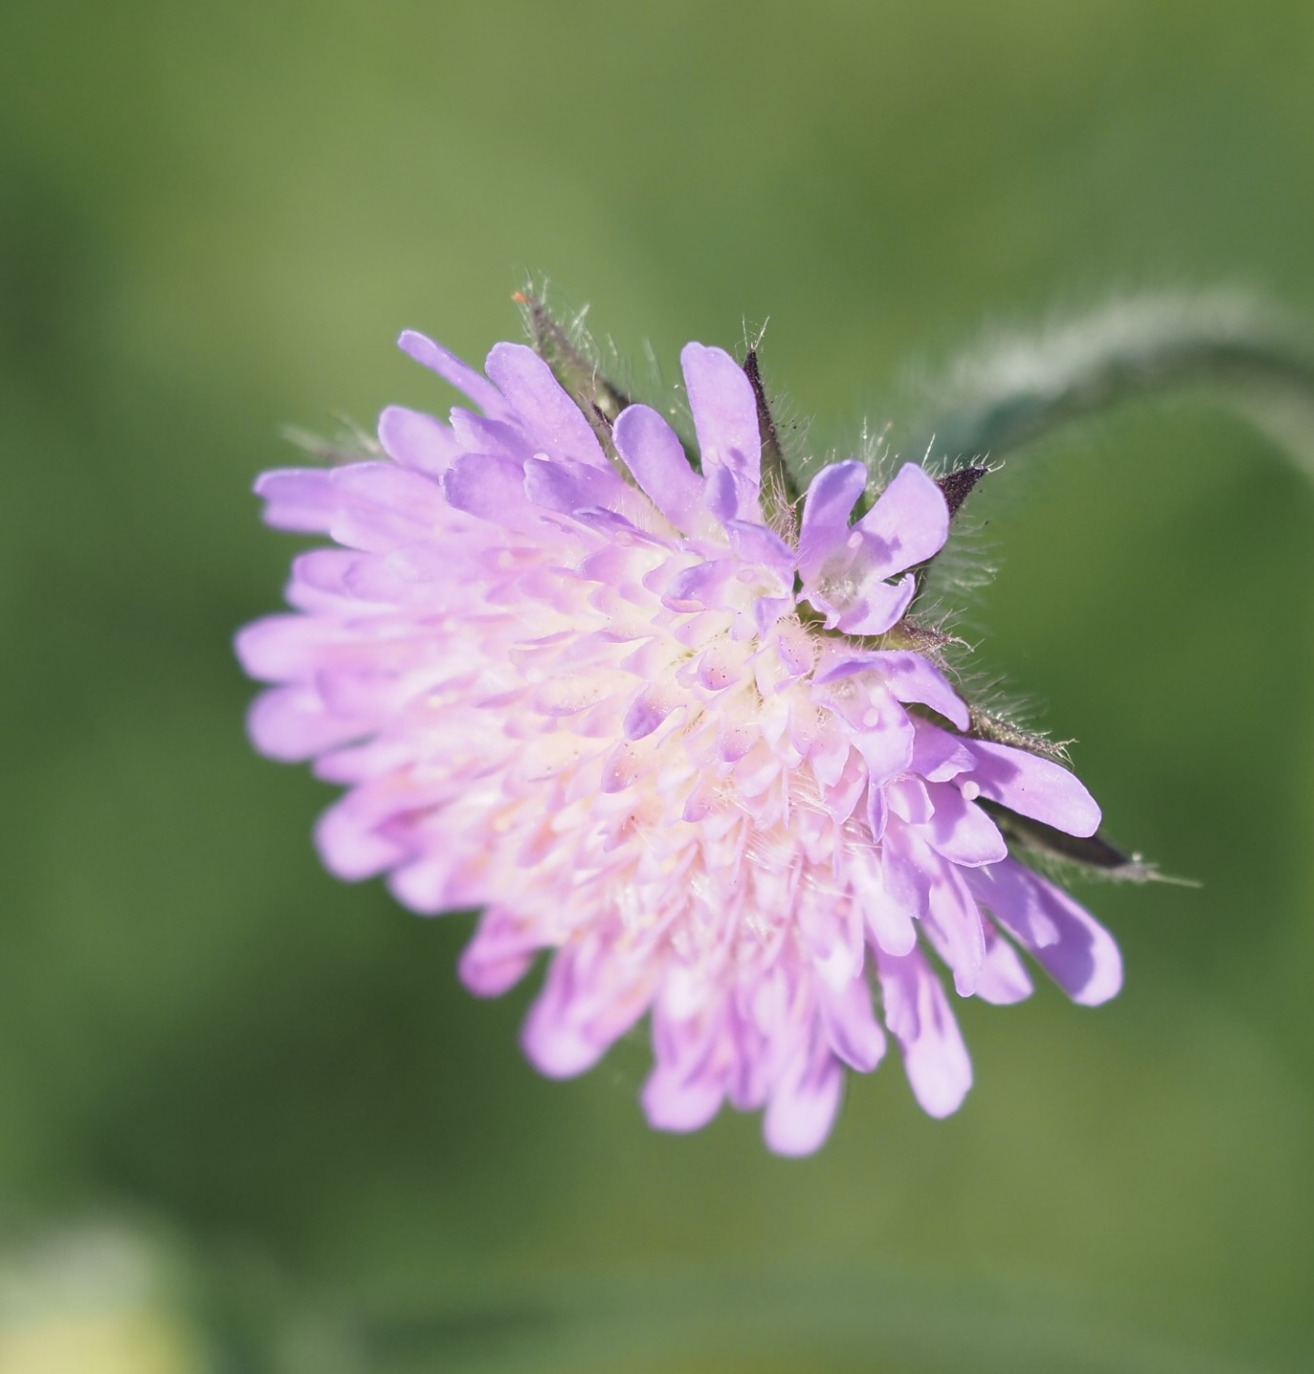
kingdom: Plantae
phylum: Tracheophyta
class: Magnoliopsida
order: Dipsacales
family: Caprifoliaceae
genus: Knautia
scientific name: Knautia arvensis
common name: Blåhat
